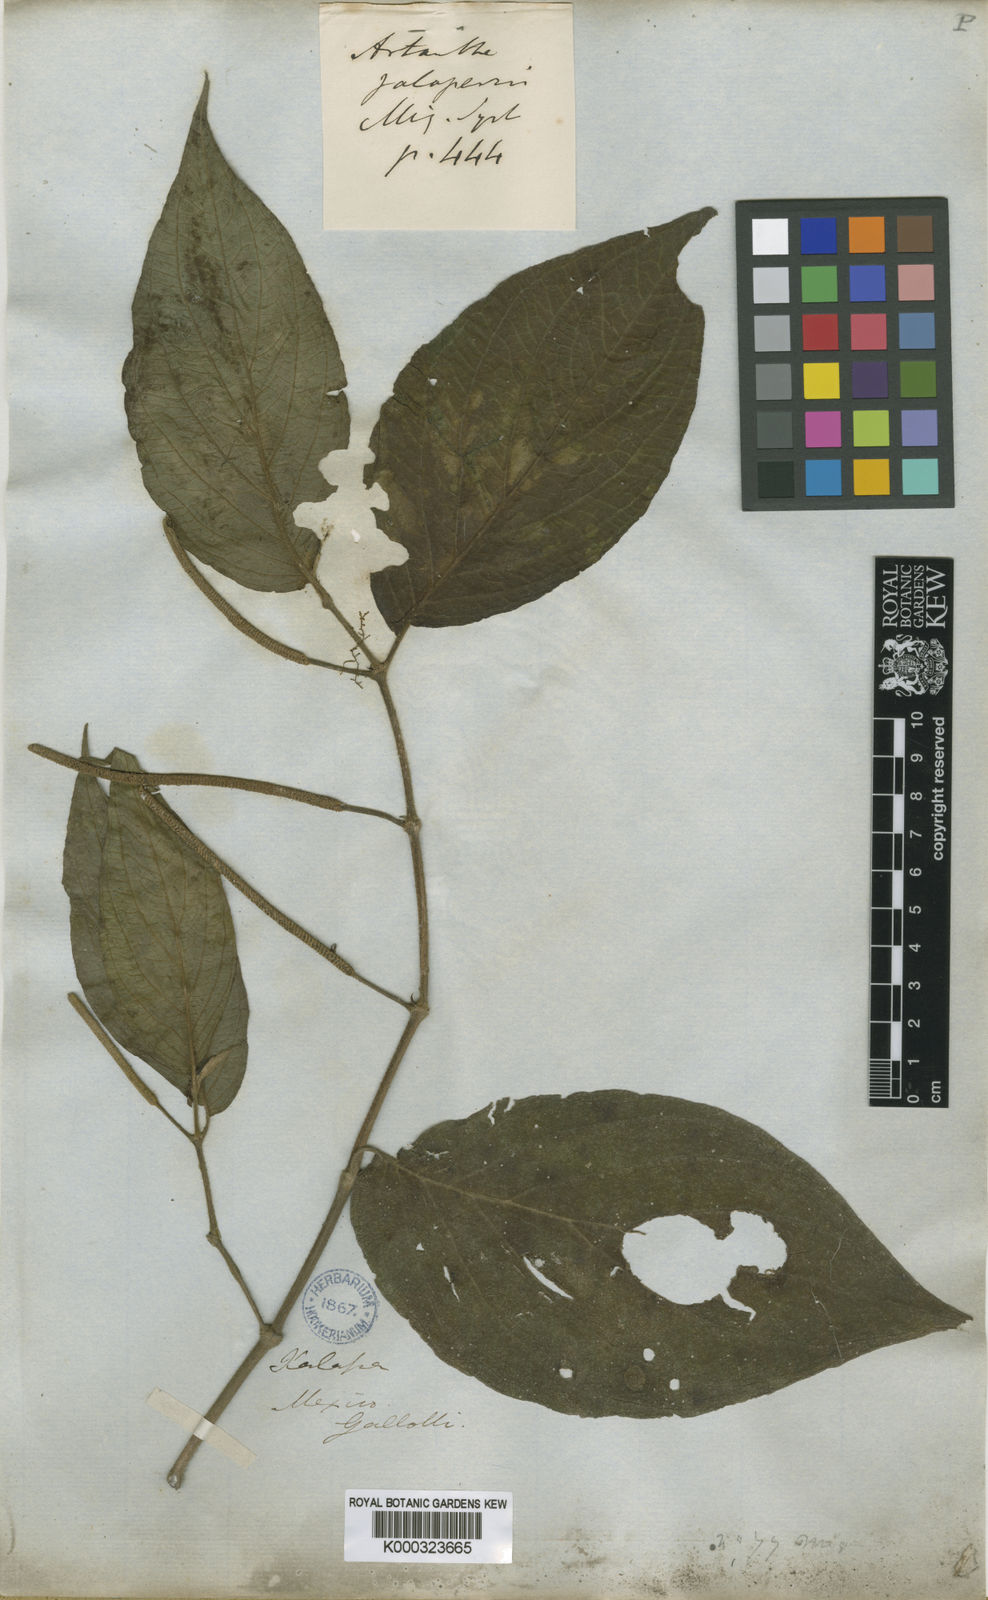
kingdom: Plantae
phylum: Tracheophyta
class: Magnoliopsida
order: Piperales
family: Piperaceae
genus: Piper
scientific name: Piper
